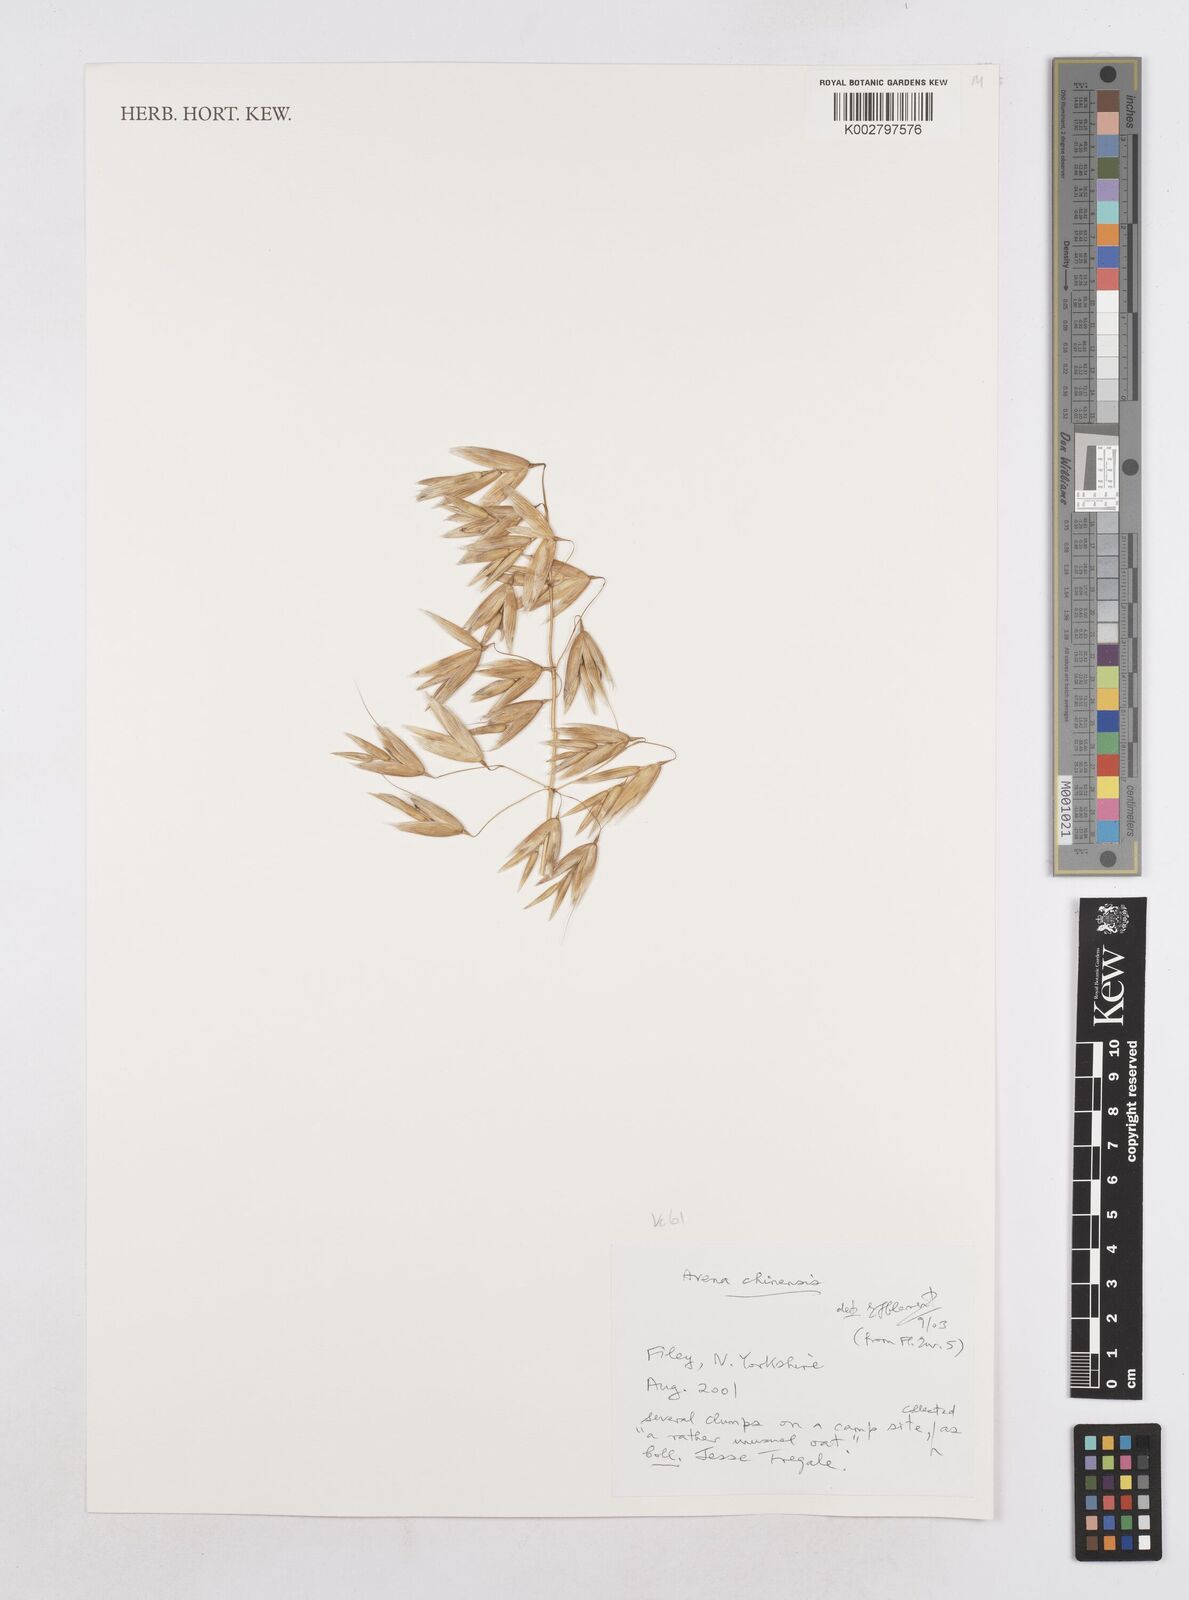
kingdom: Plantae
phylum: Tracheophyta
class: Liliopsida
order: Poales
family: Poaceae
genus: Avena
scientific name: Avena sativa
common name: Oat
